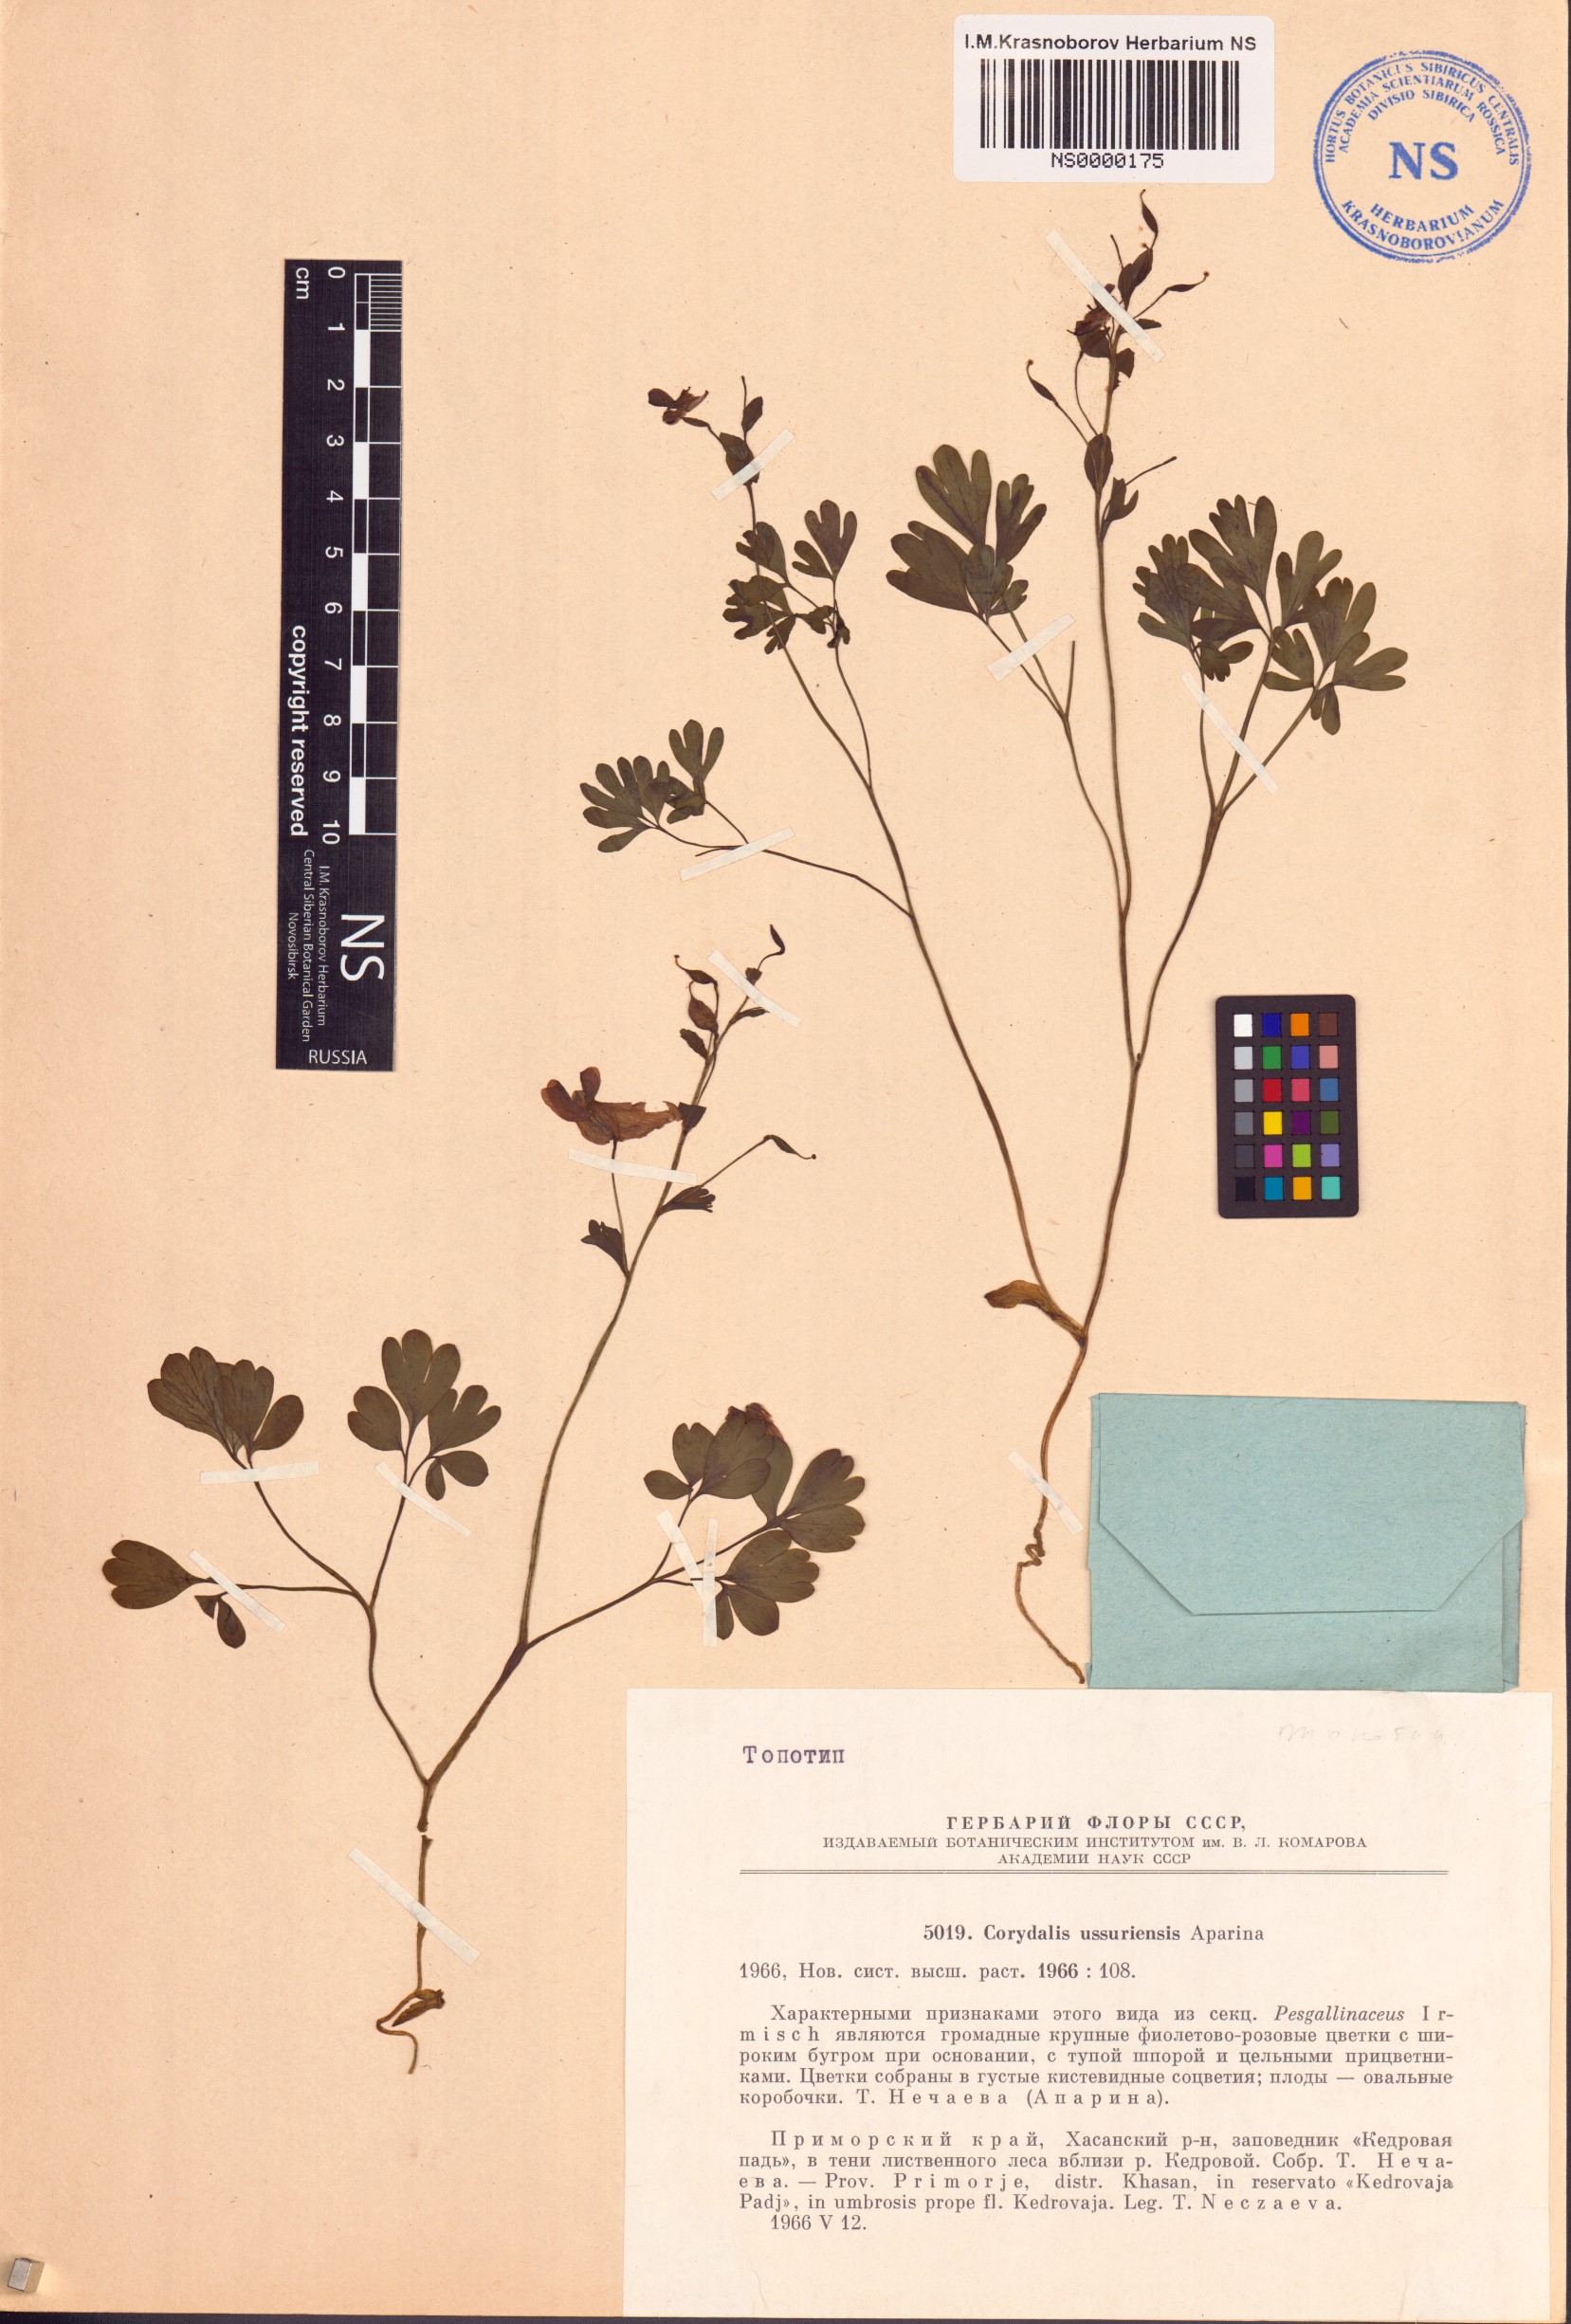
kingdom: Plantae
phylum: Tracheophyta
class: Magnoliopsida
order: Ranunculales
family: Papaveraceae
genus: Corydalis
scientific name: Corydalis ussuriensis
